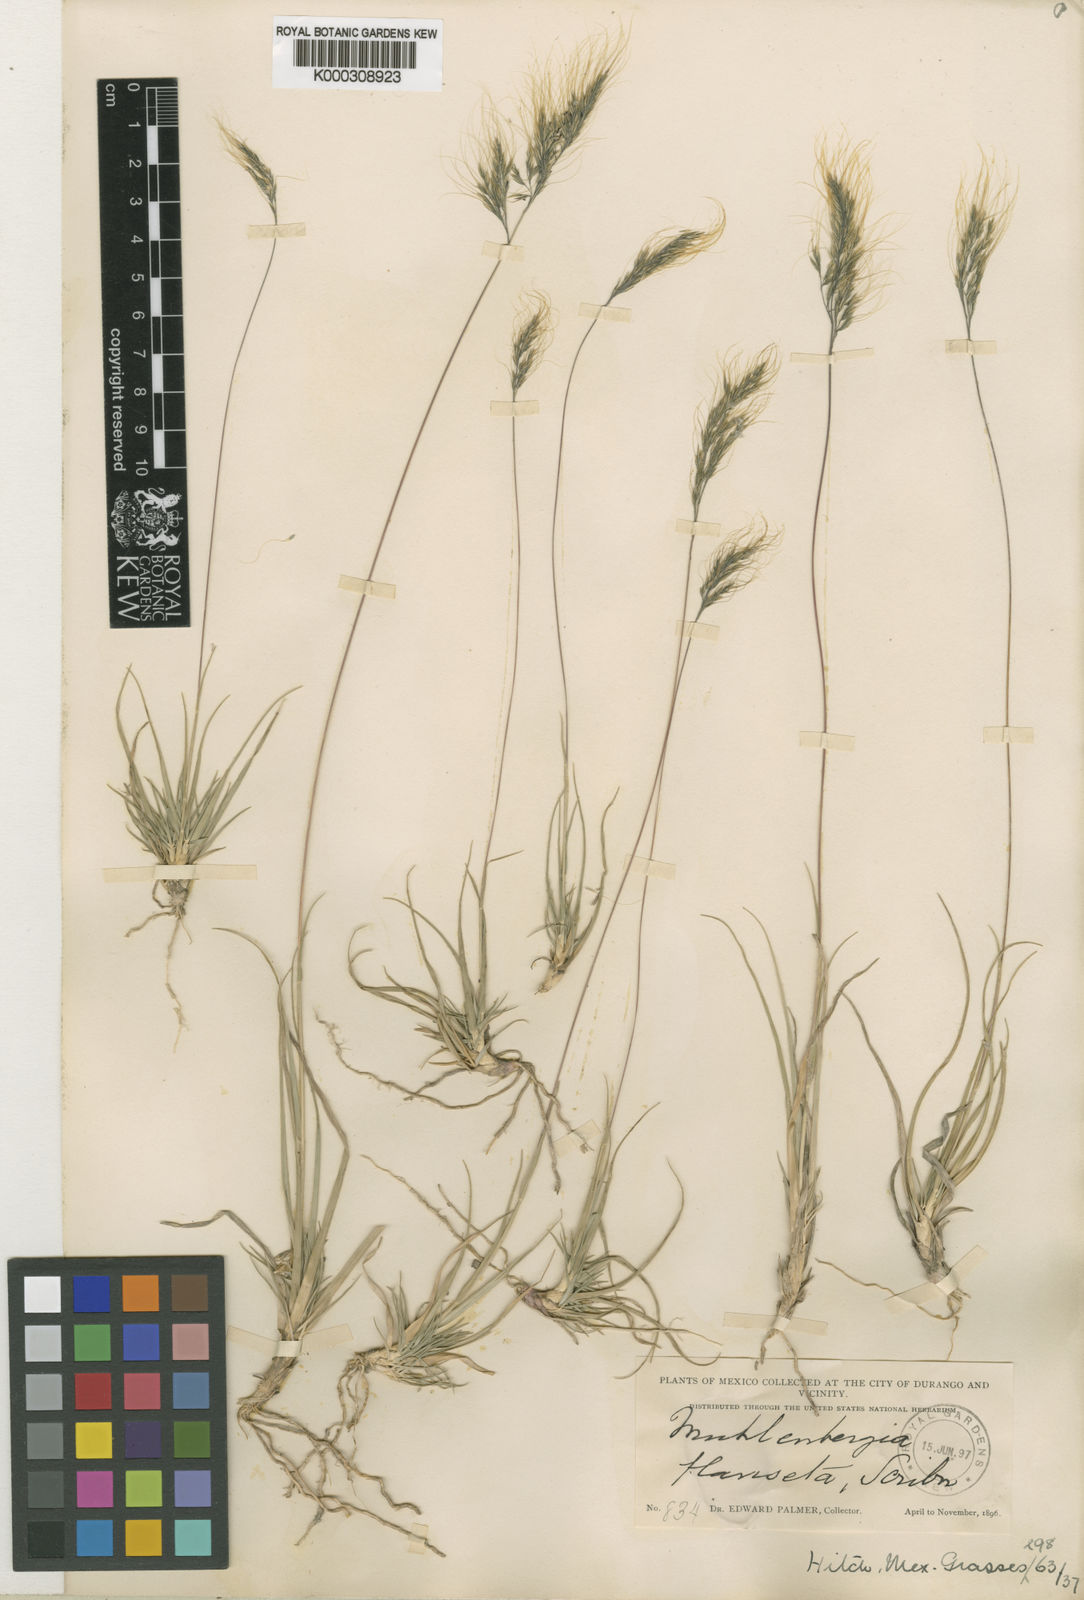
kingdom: Plantae
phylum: Tracheophyta
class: Liliopsida
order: Poales
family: Poaceae
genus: Muhlenbergia
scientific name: Muhlenbergia flaviseta
